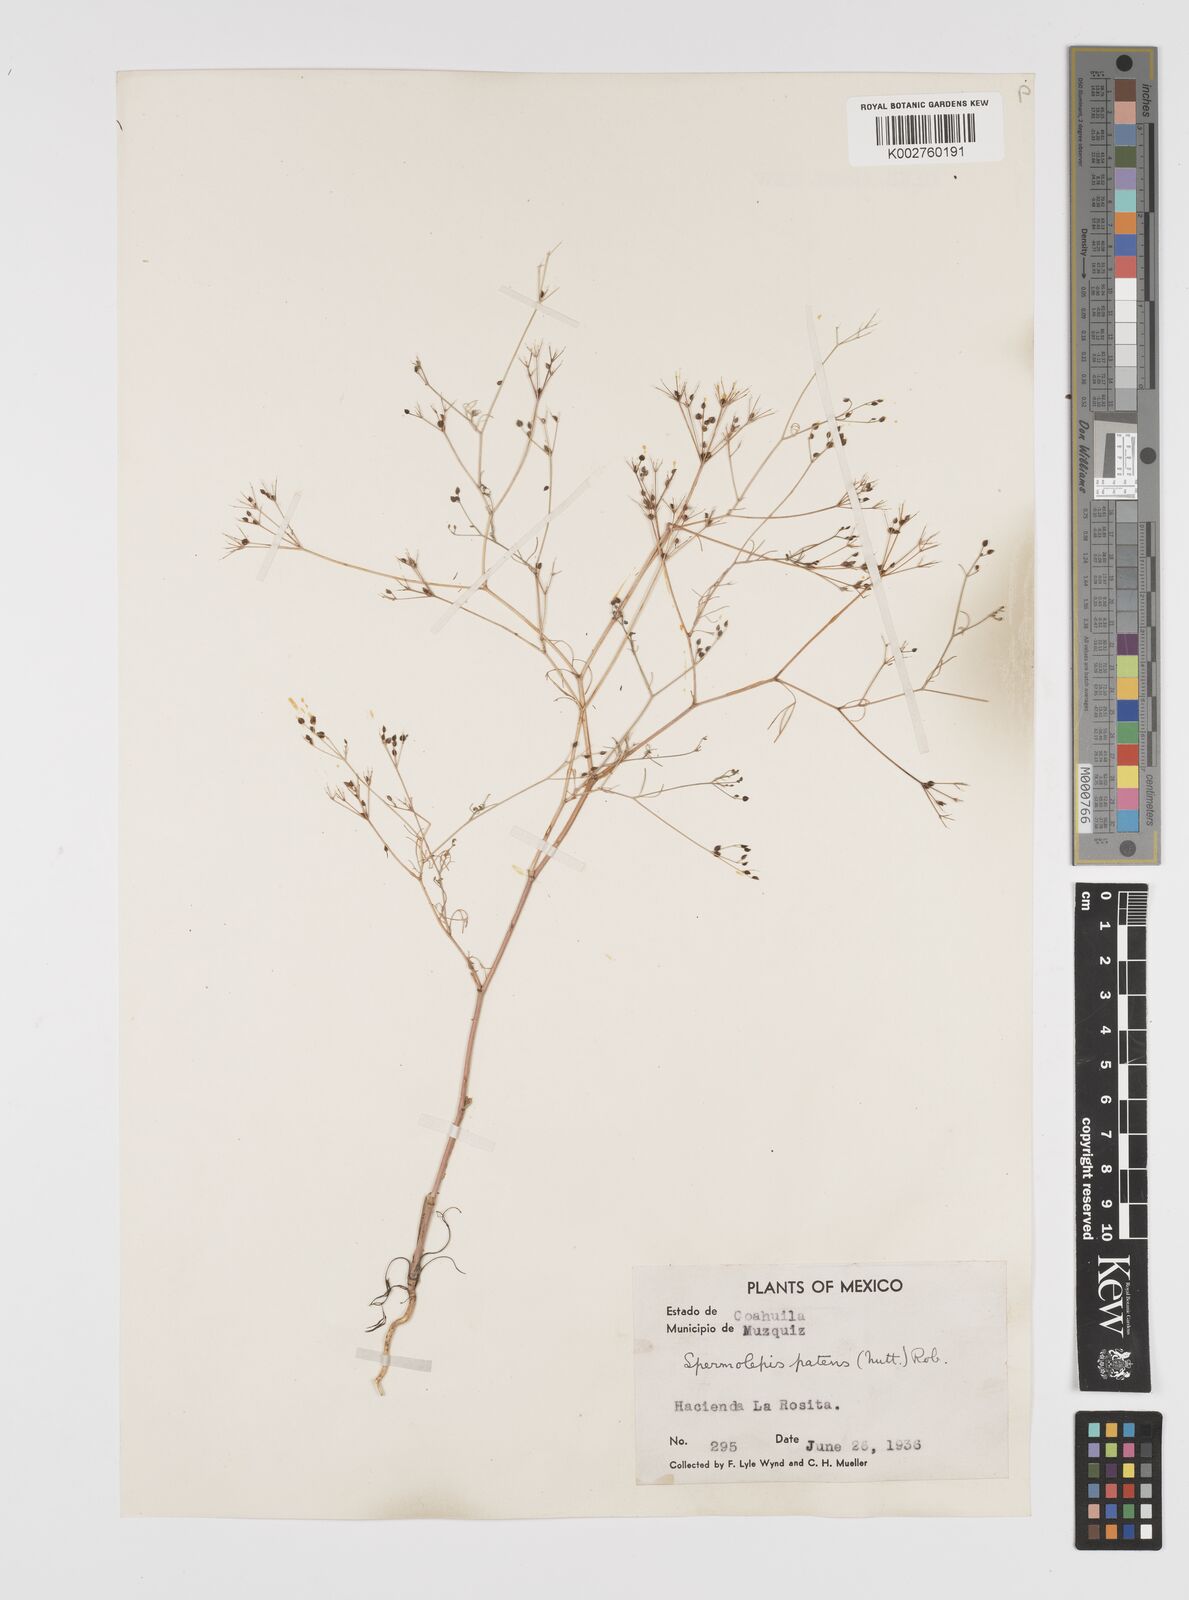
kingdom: Plantae
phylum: Tracheophyta
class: Magnoliopsida
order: Apiales
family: Apiaceae
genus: Spermolepis
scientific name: Spermolepis inermis
